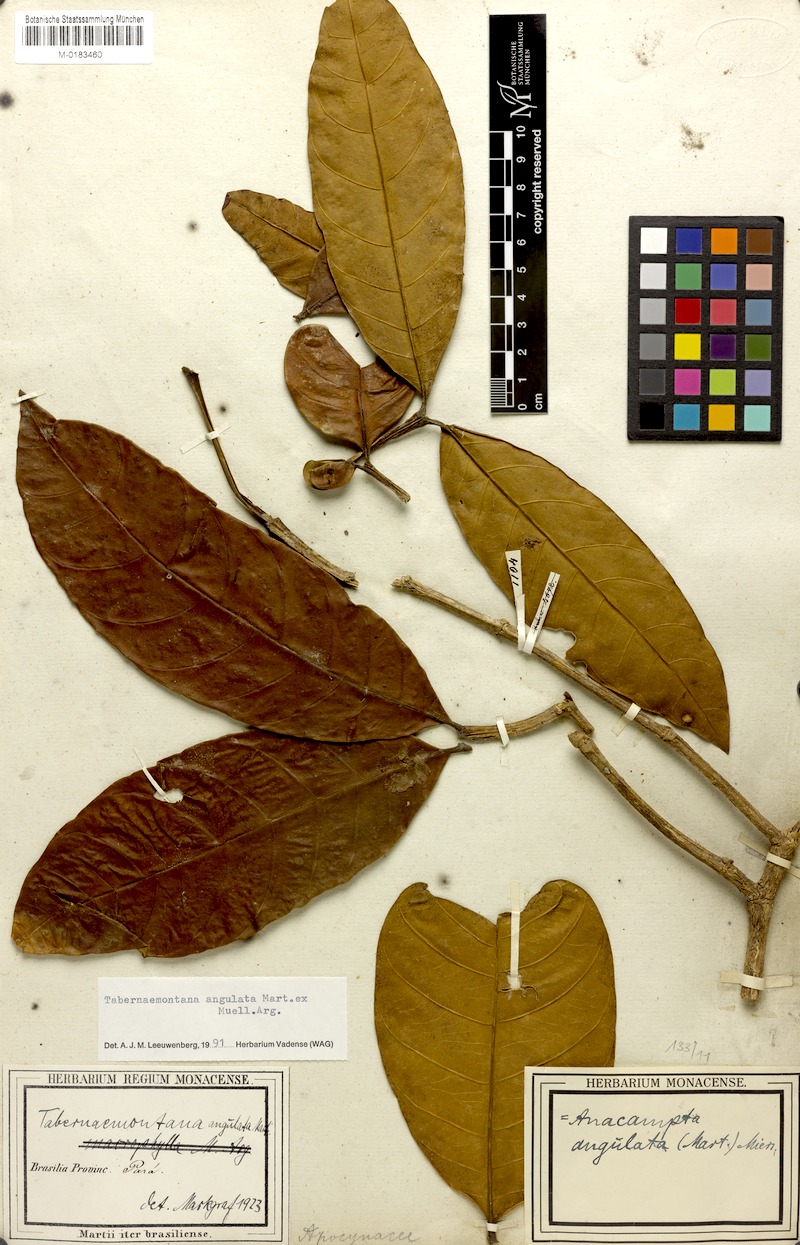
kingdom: Plantae
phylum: Tracheophyta
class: Magnoliopsida
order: Gentianales
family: Apocynaceae
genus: Tabernaemontana
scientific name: Tabernaemontana angulata
